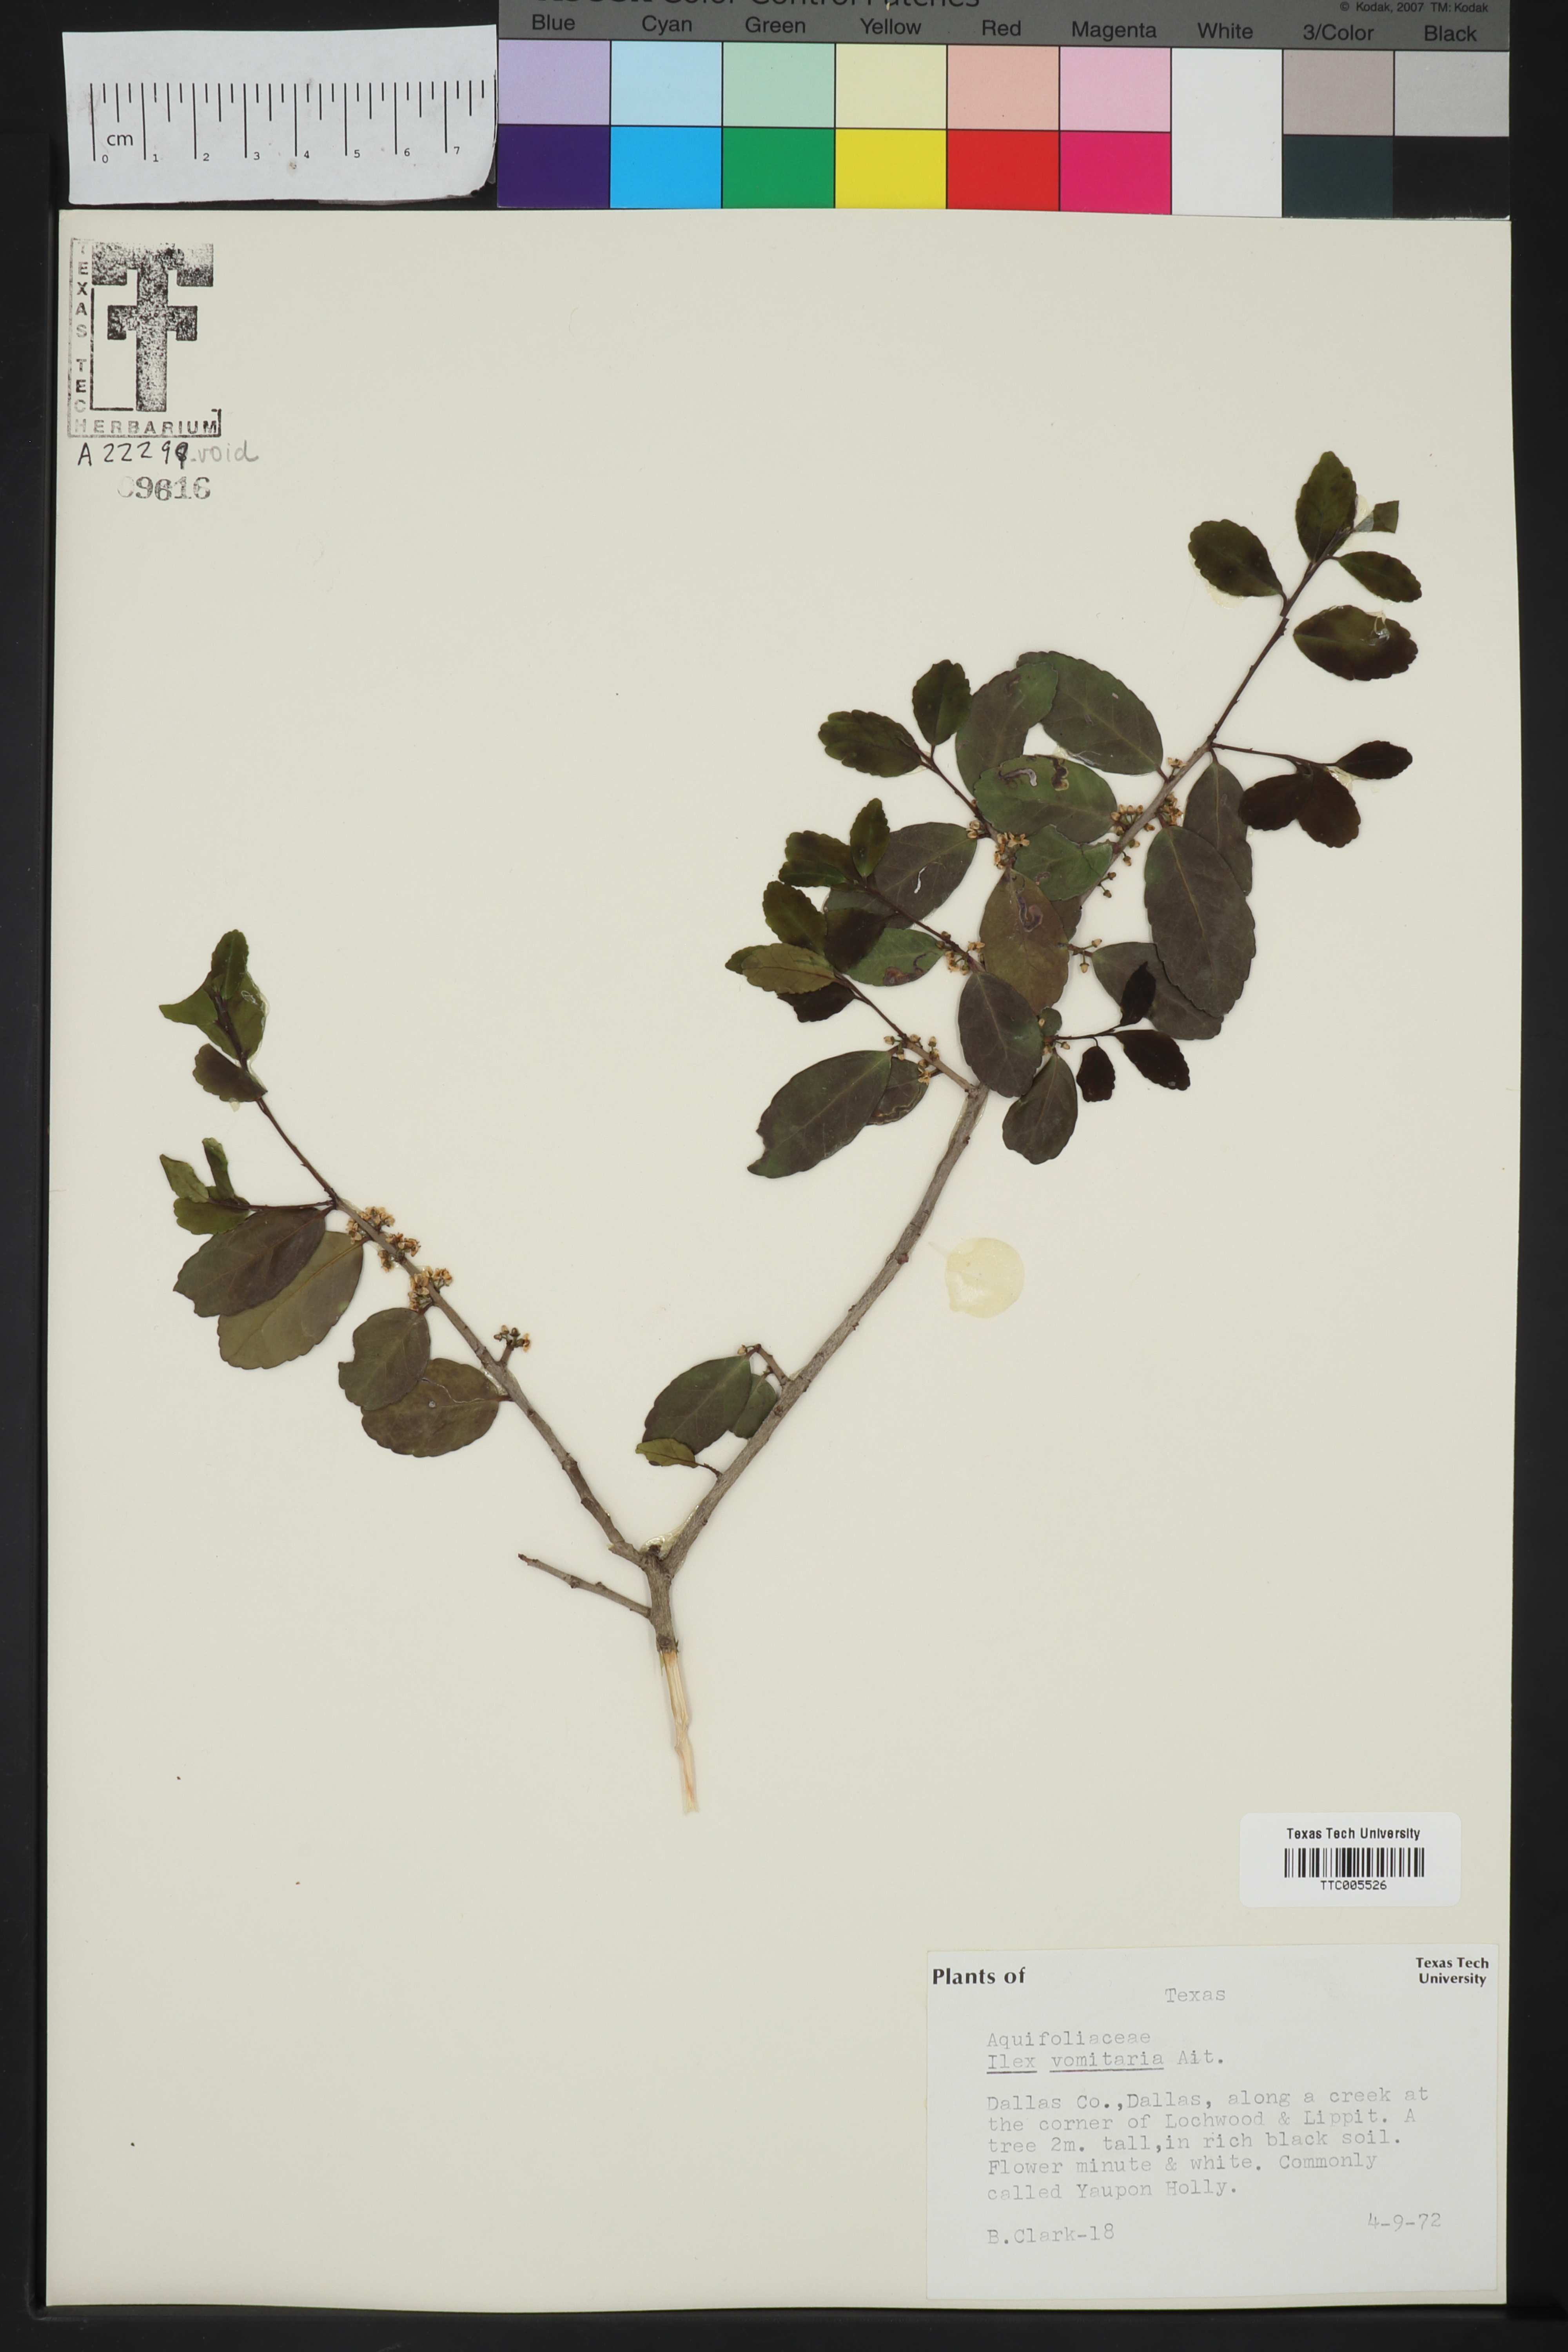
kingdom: Plantae
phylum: Tracheophyta
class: Magnoliopsida
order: Aquifoliales
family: Aquifoliaceae
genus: Ilex
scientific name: Ilex vomitoria
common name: Yaupon holly
